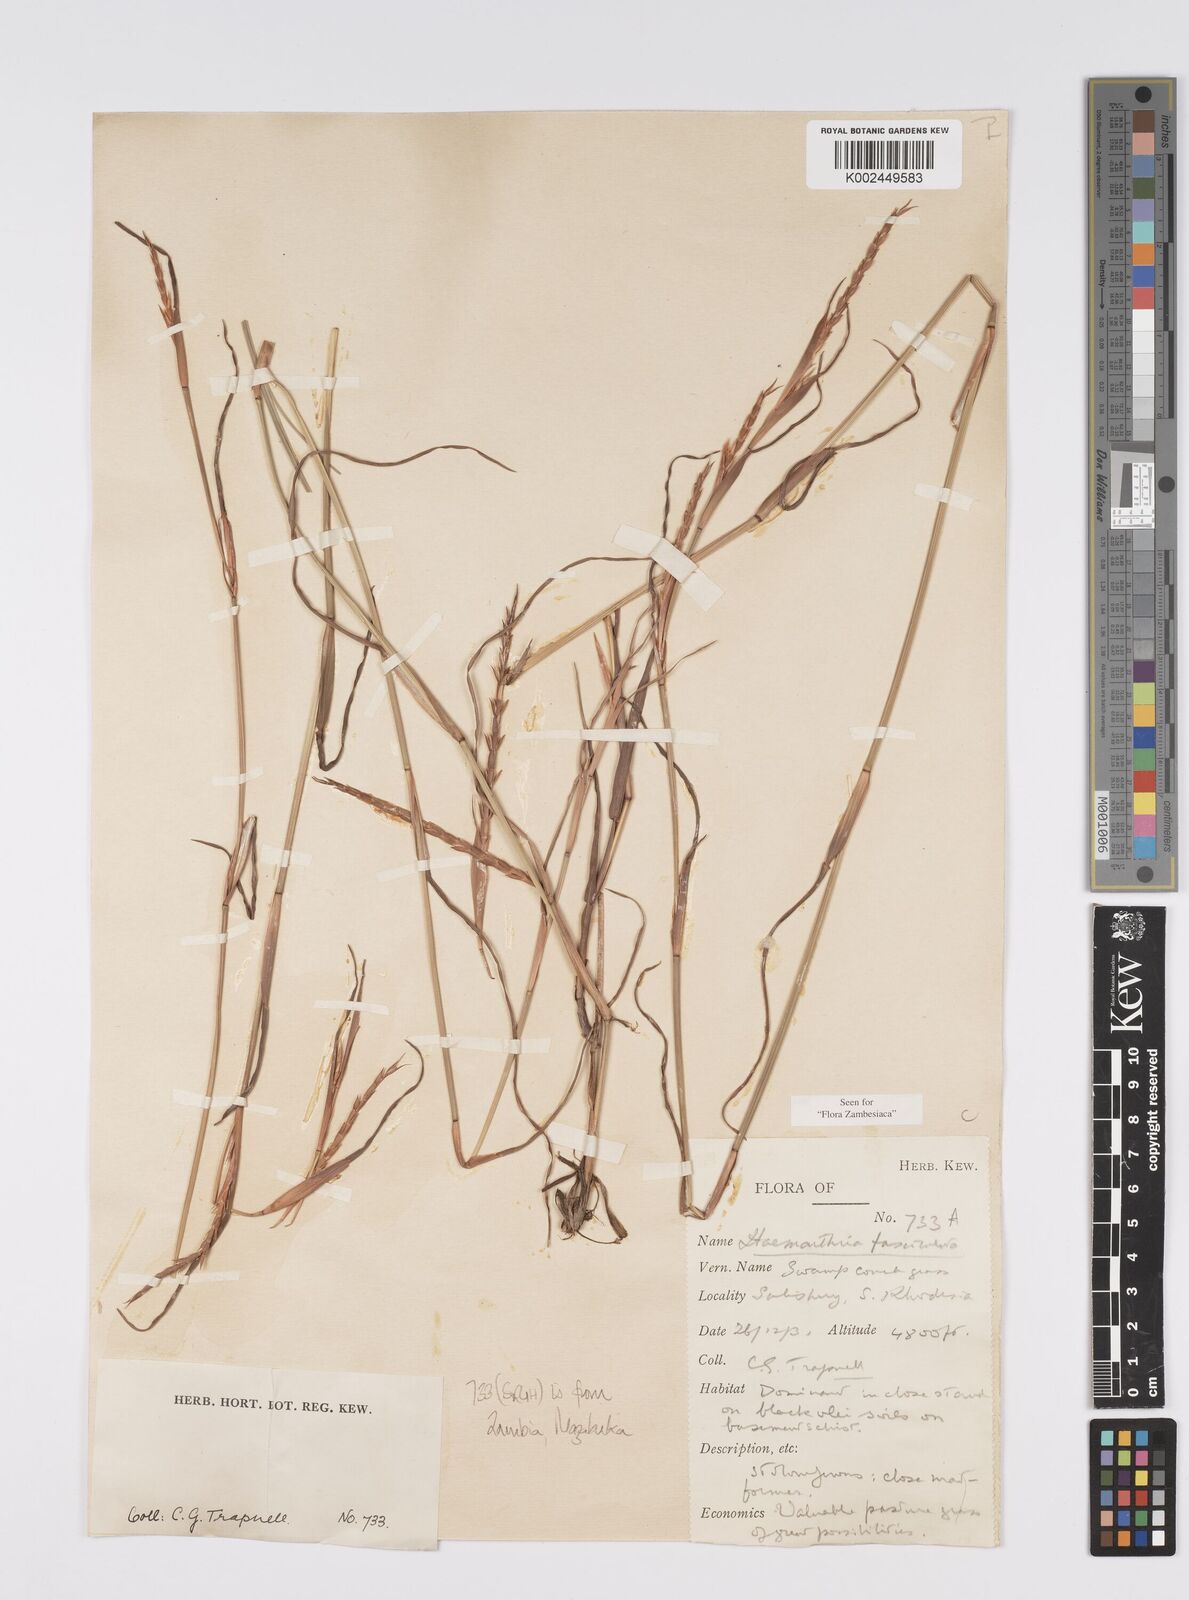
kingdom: Plantae
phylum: Tracheophyta
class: Liliopsida
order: Poales
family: Poaceae
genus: Hemarthria
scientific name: Hemarthria altissima
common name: African jointgrass
